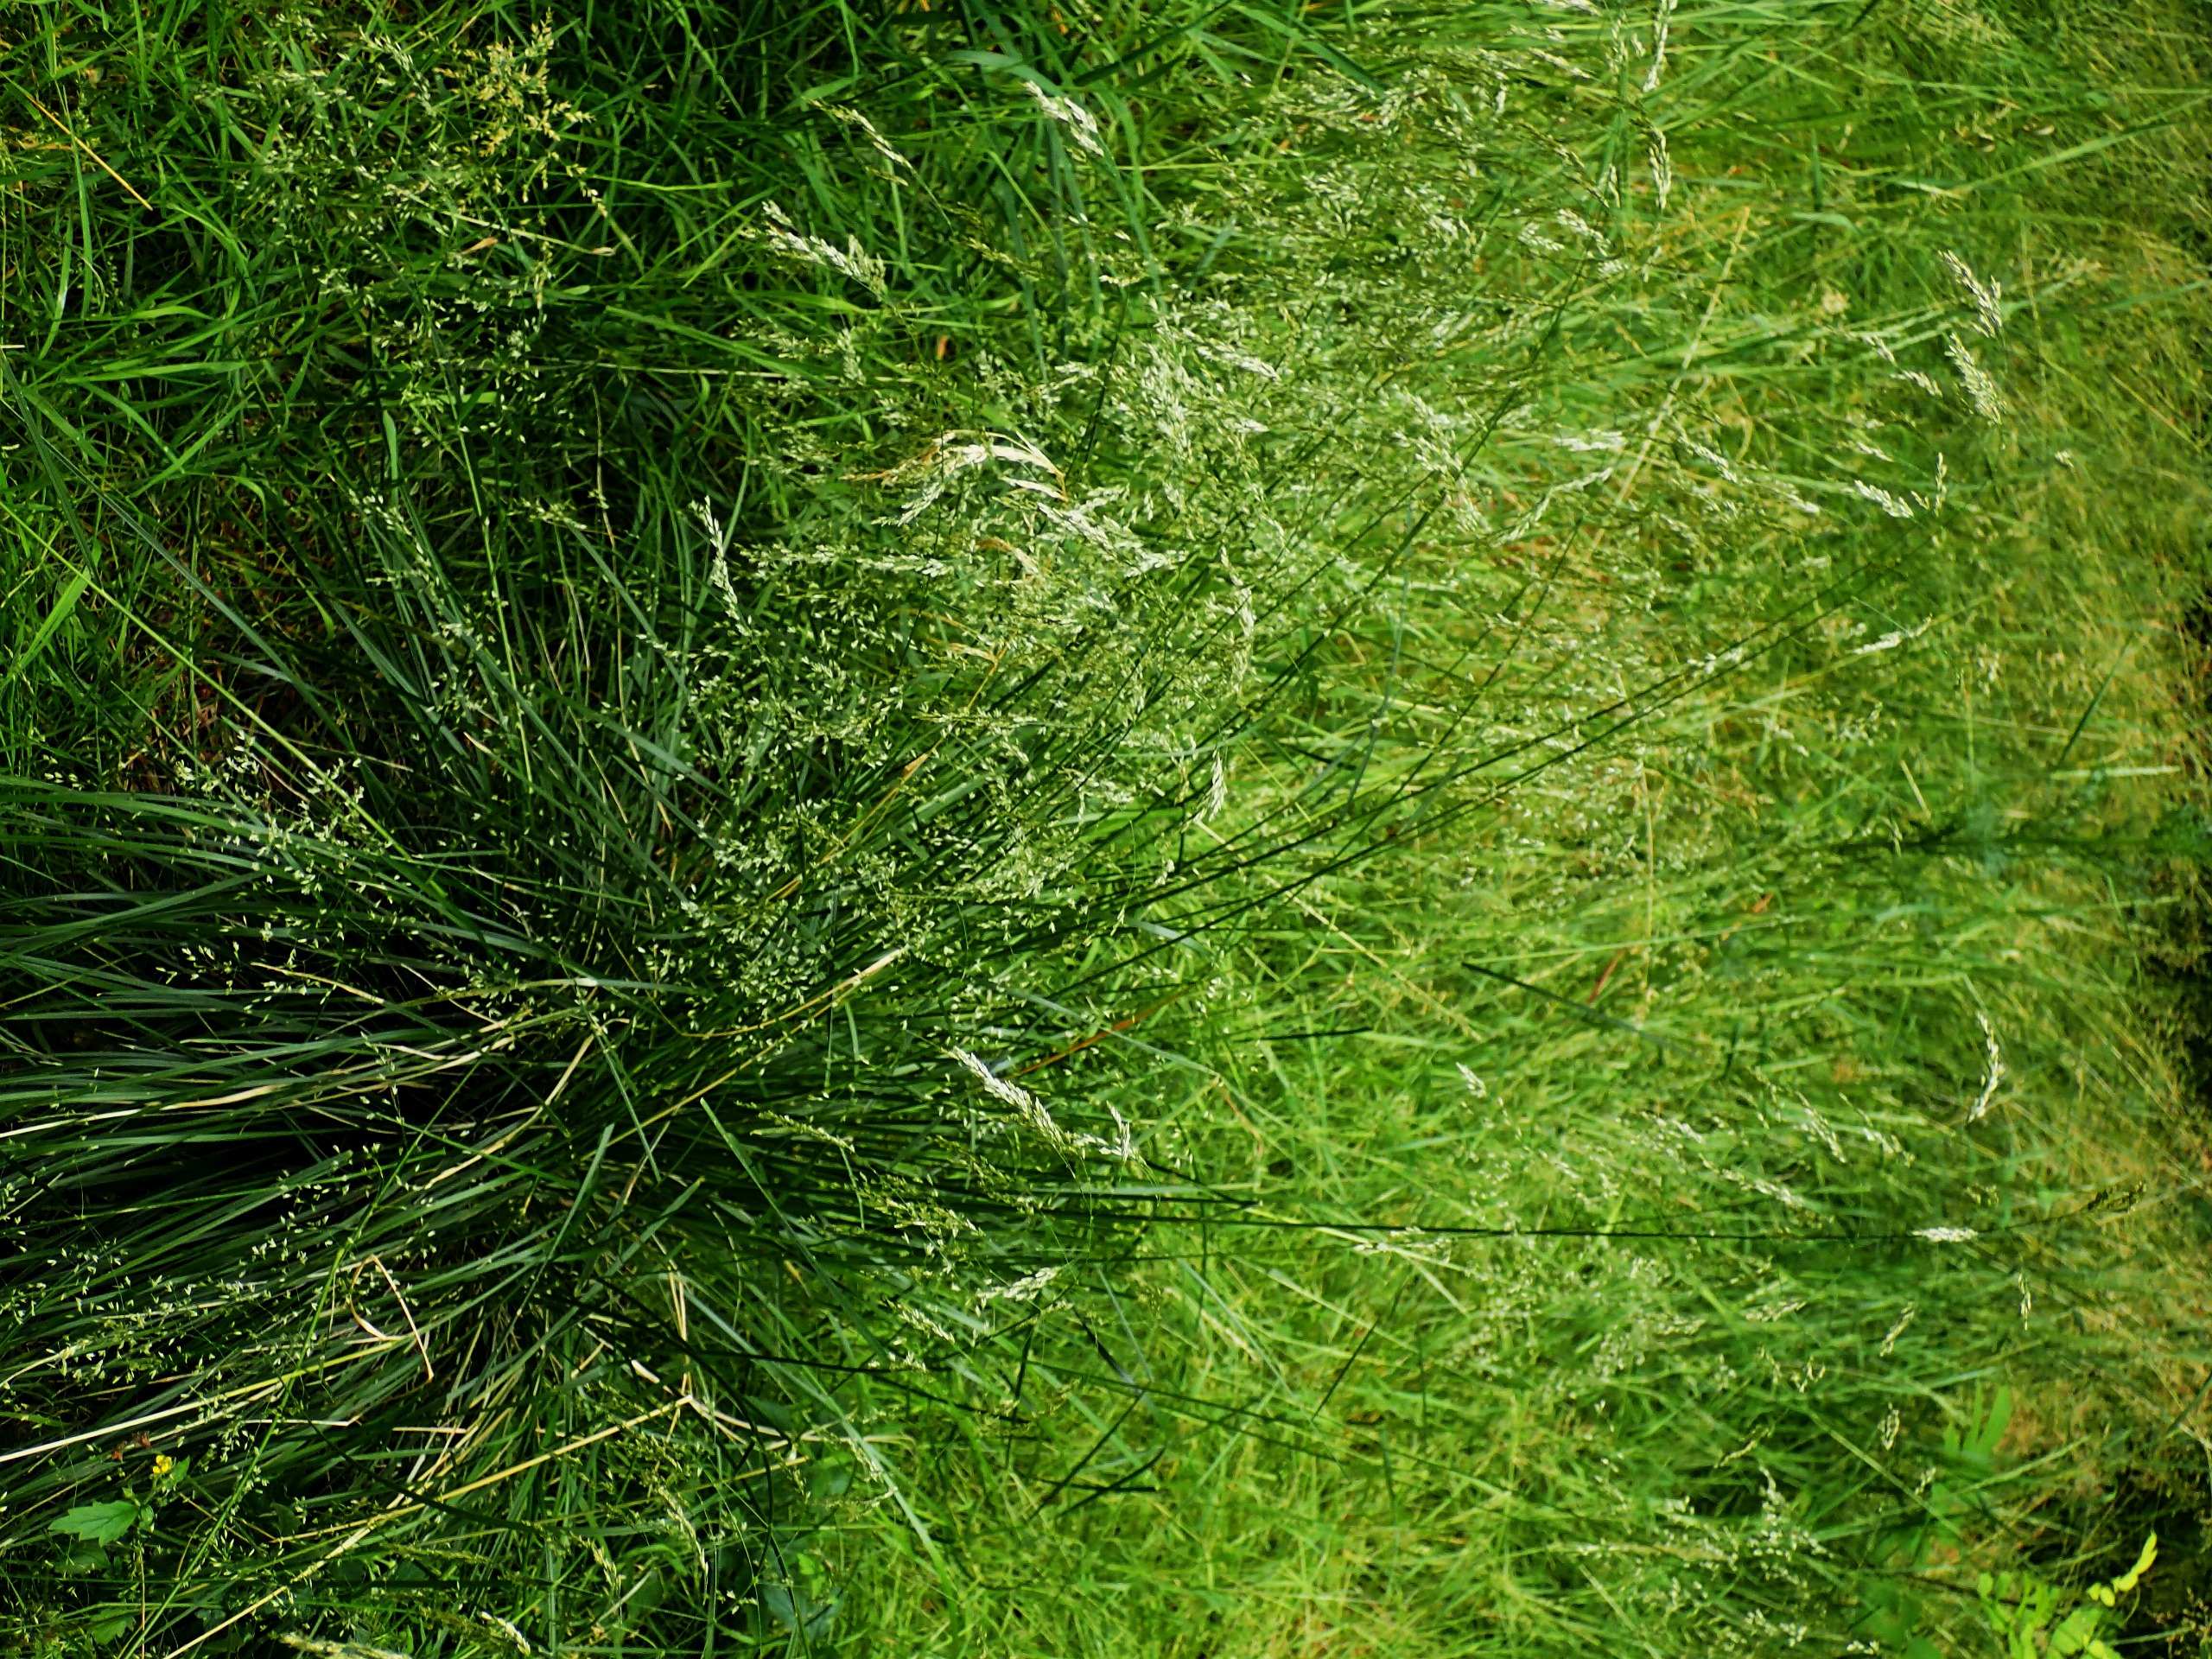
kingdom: Plantae
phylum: Tracheophyta
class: Liliopsida
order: Poales
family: Poaceae
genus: Deschampsia
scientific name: Deschampsia cespitosa
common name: Mose-bunke
